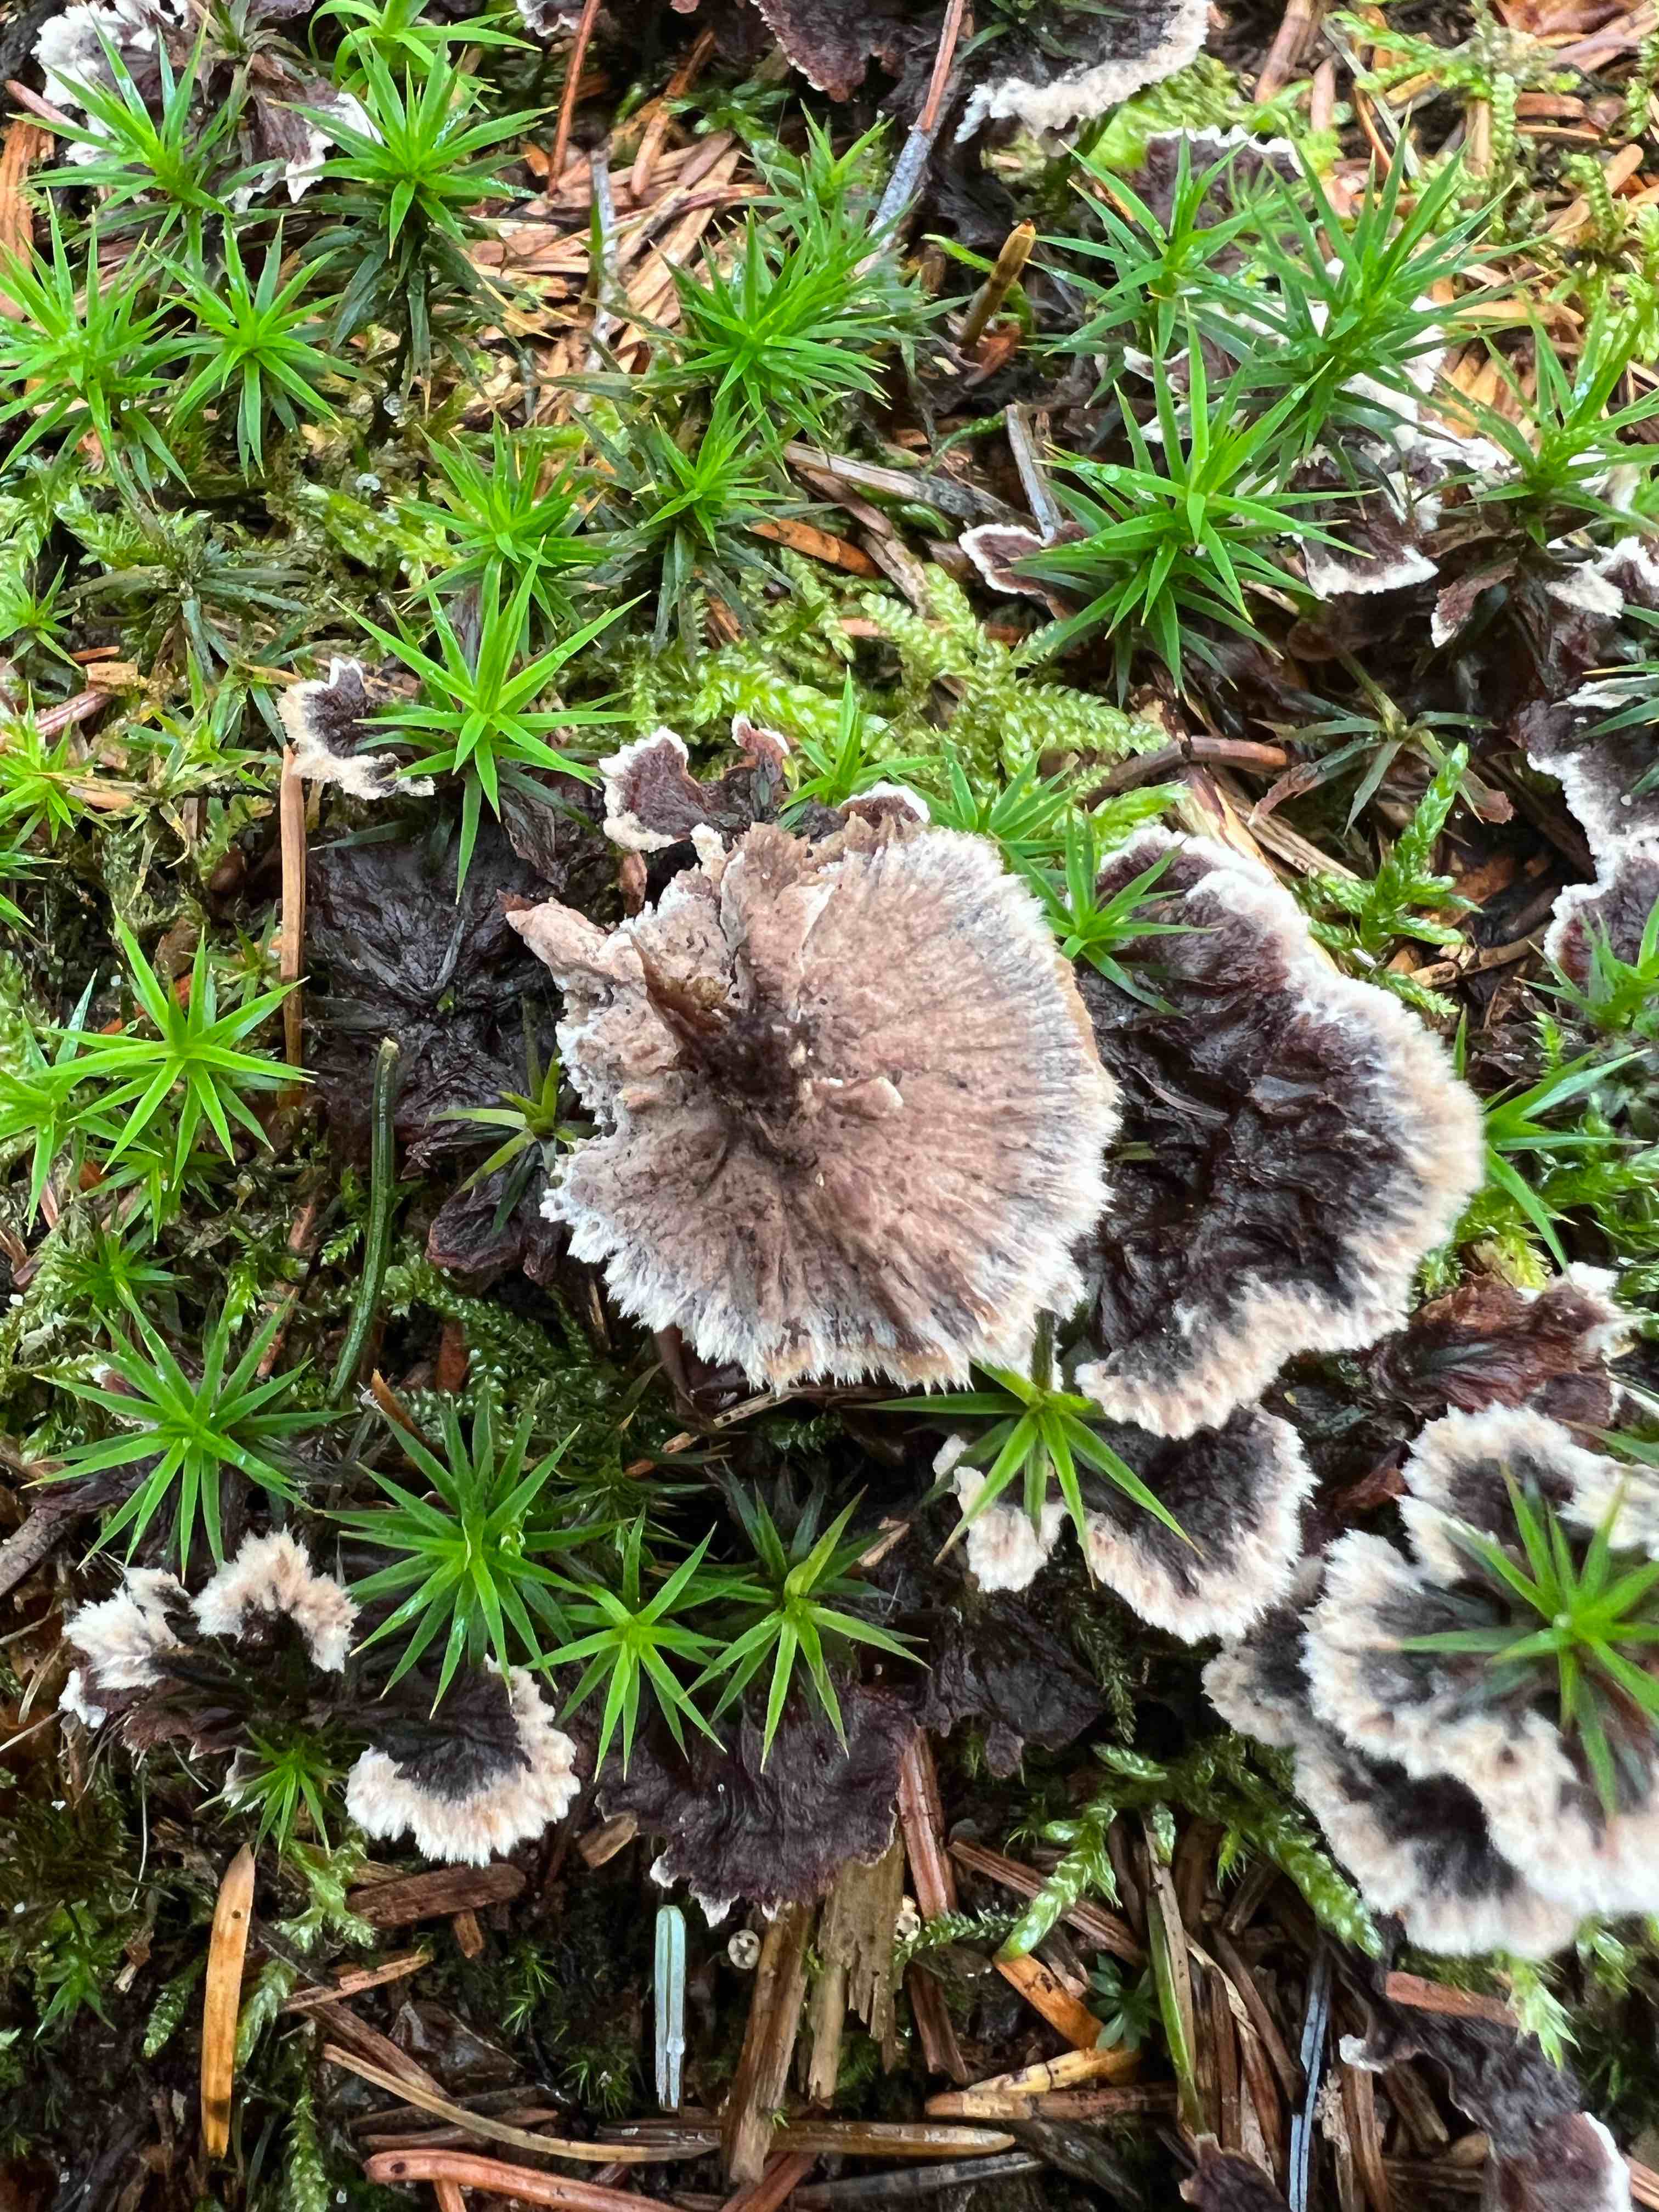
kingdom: Fungi
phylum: Basidiomycota
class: Agaricomycetes
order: Thelephorales
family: Thelephoraceae
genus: Thelephora
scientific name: Thelephora terrestris
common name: fliget frynsesvamp
